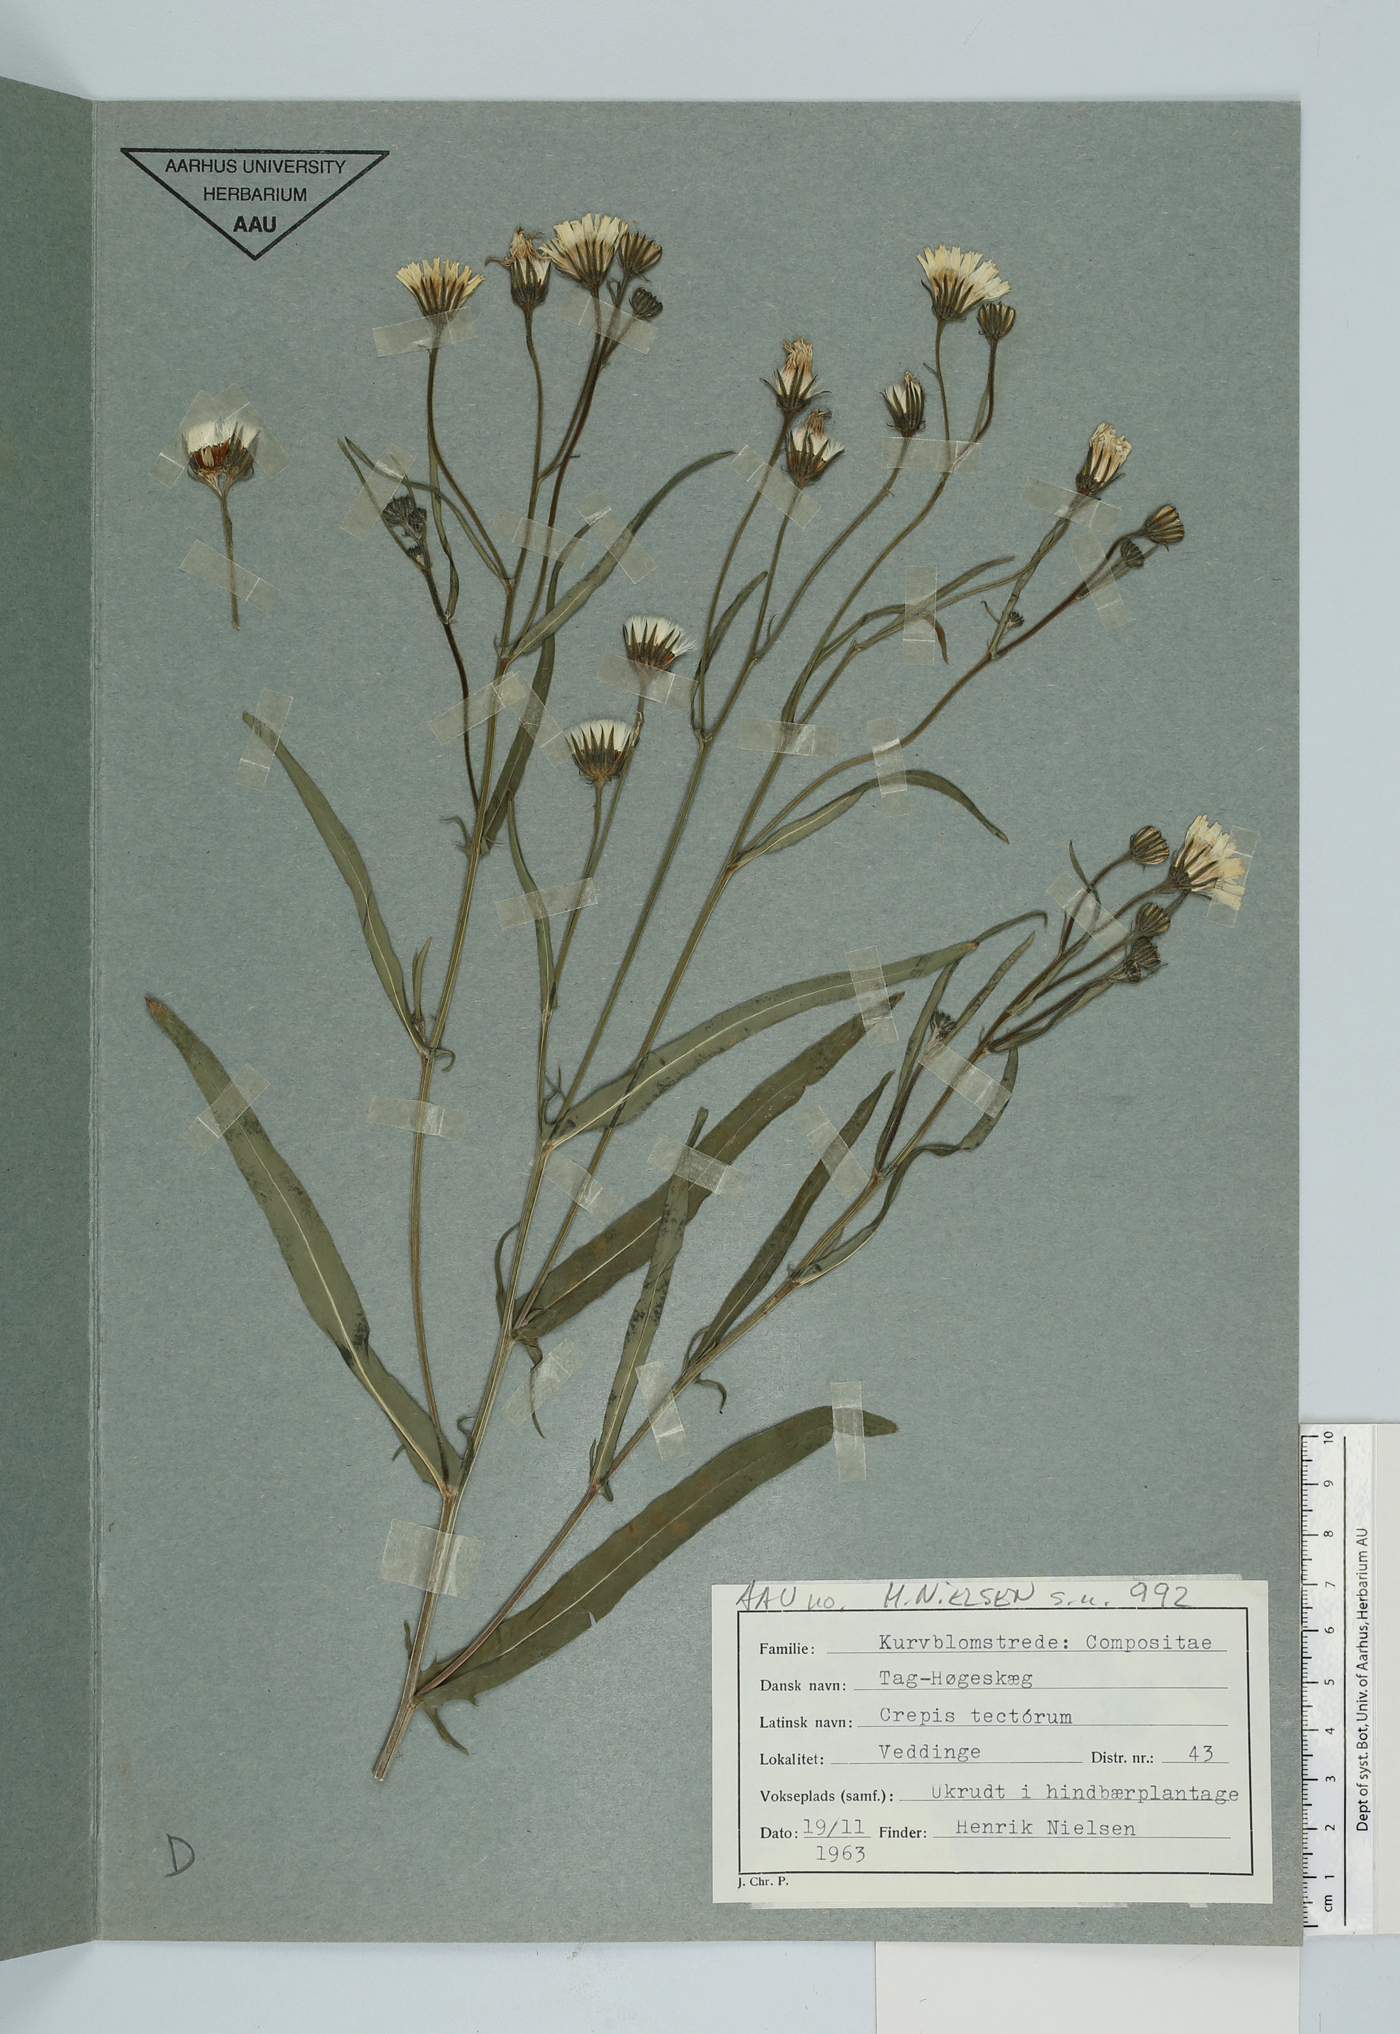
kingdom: Plantae
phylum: Tracheophyta
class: Magnoliopsida
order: Asterales
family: Asteraceae
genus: Crepis
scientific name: Crepis tectorum
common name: Narrow-leaved hawk's-beard
